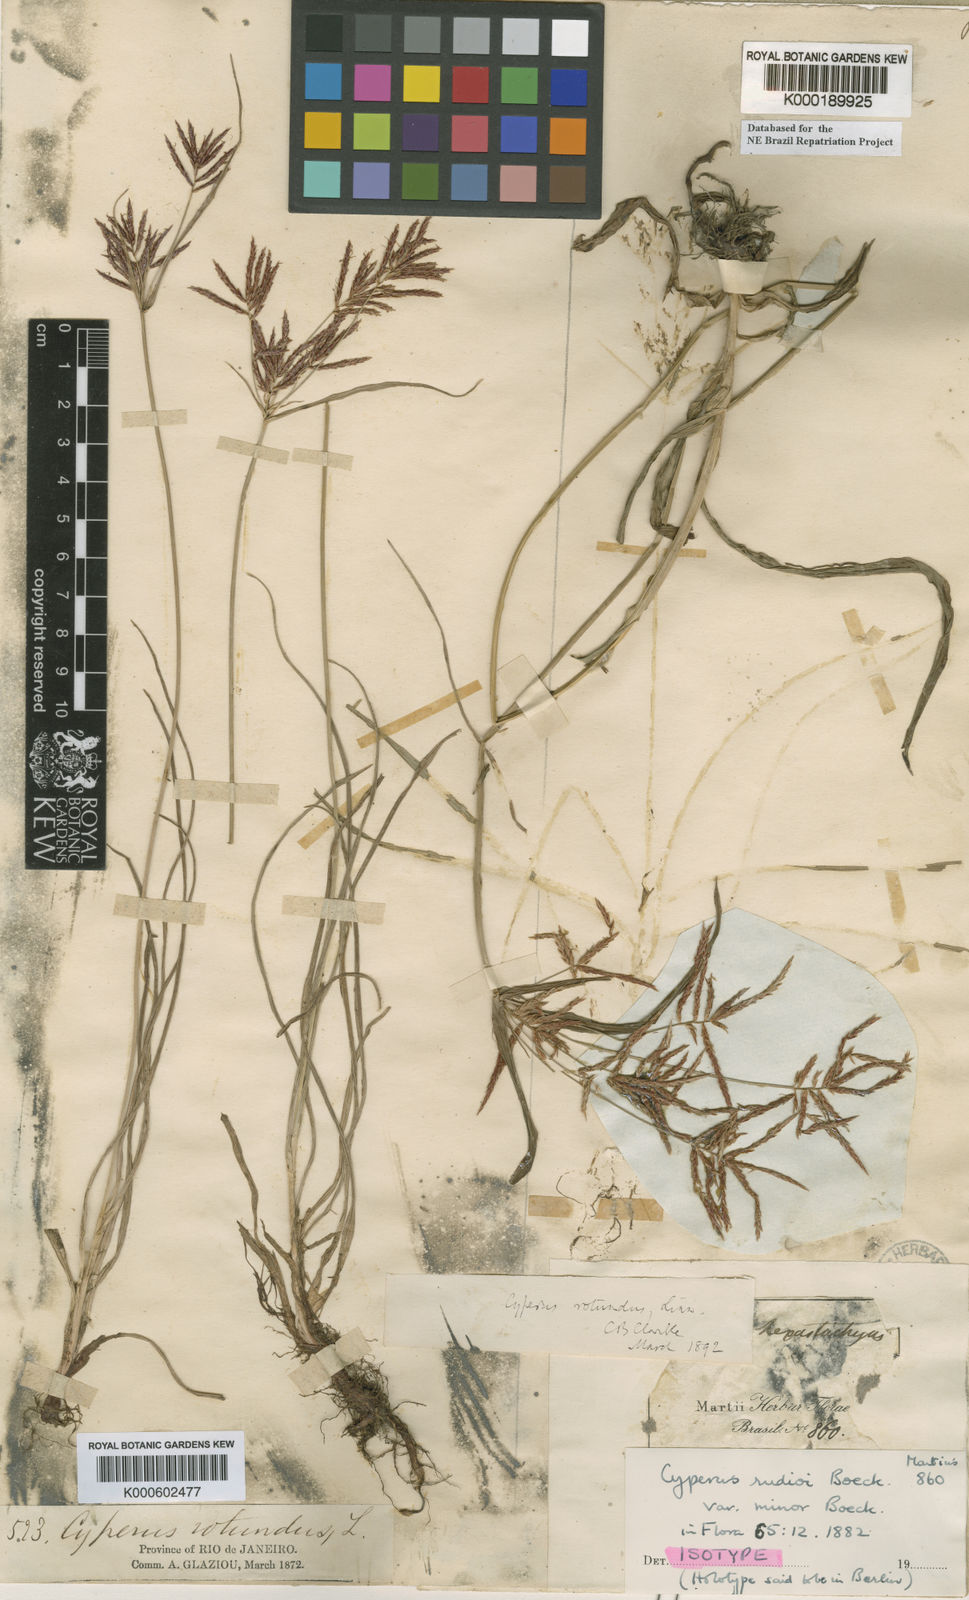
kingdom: Plantae
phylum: Tracheophyta
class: Liliopsida
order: Poales
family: Cyperaceae
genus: Cyperus
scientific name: Cyperus rotundus
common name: Nutgrass
